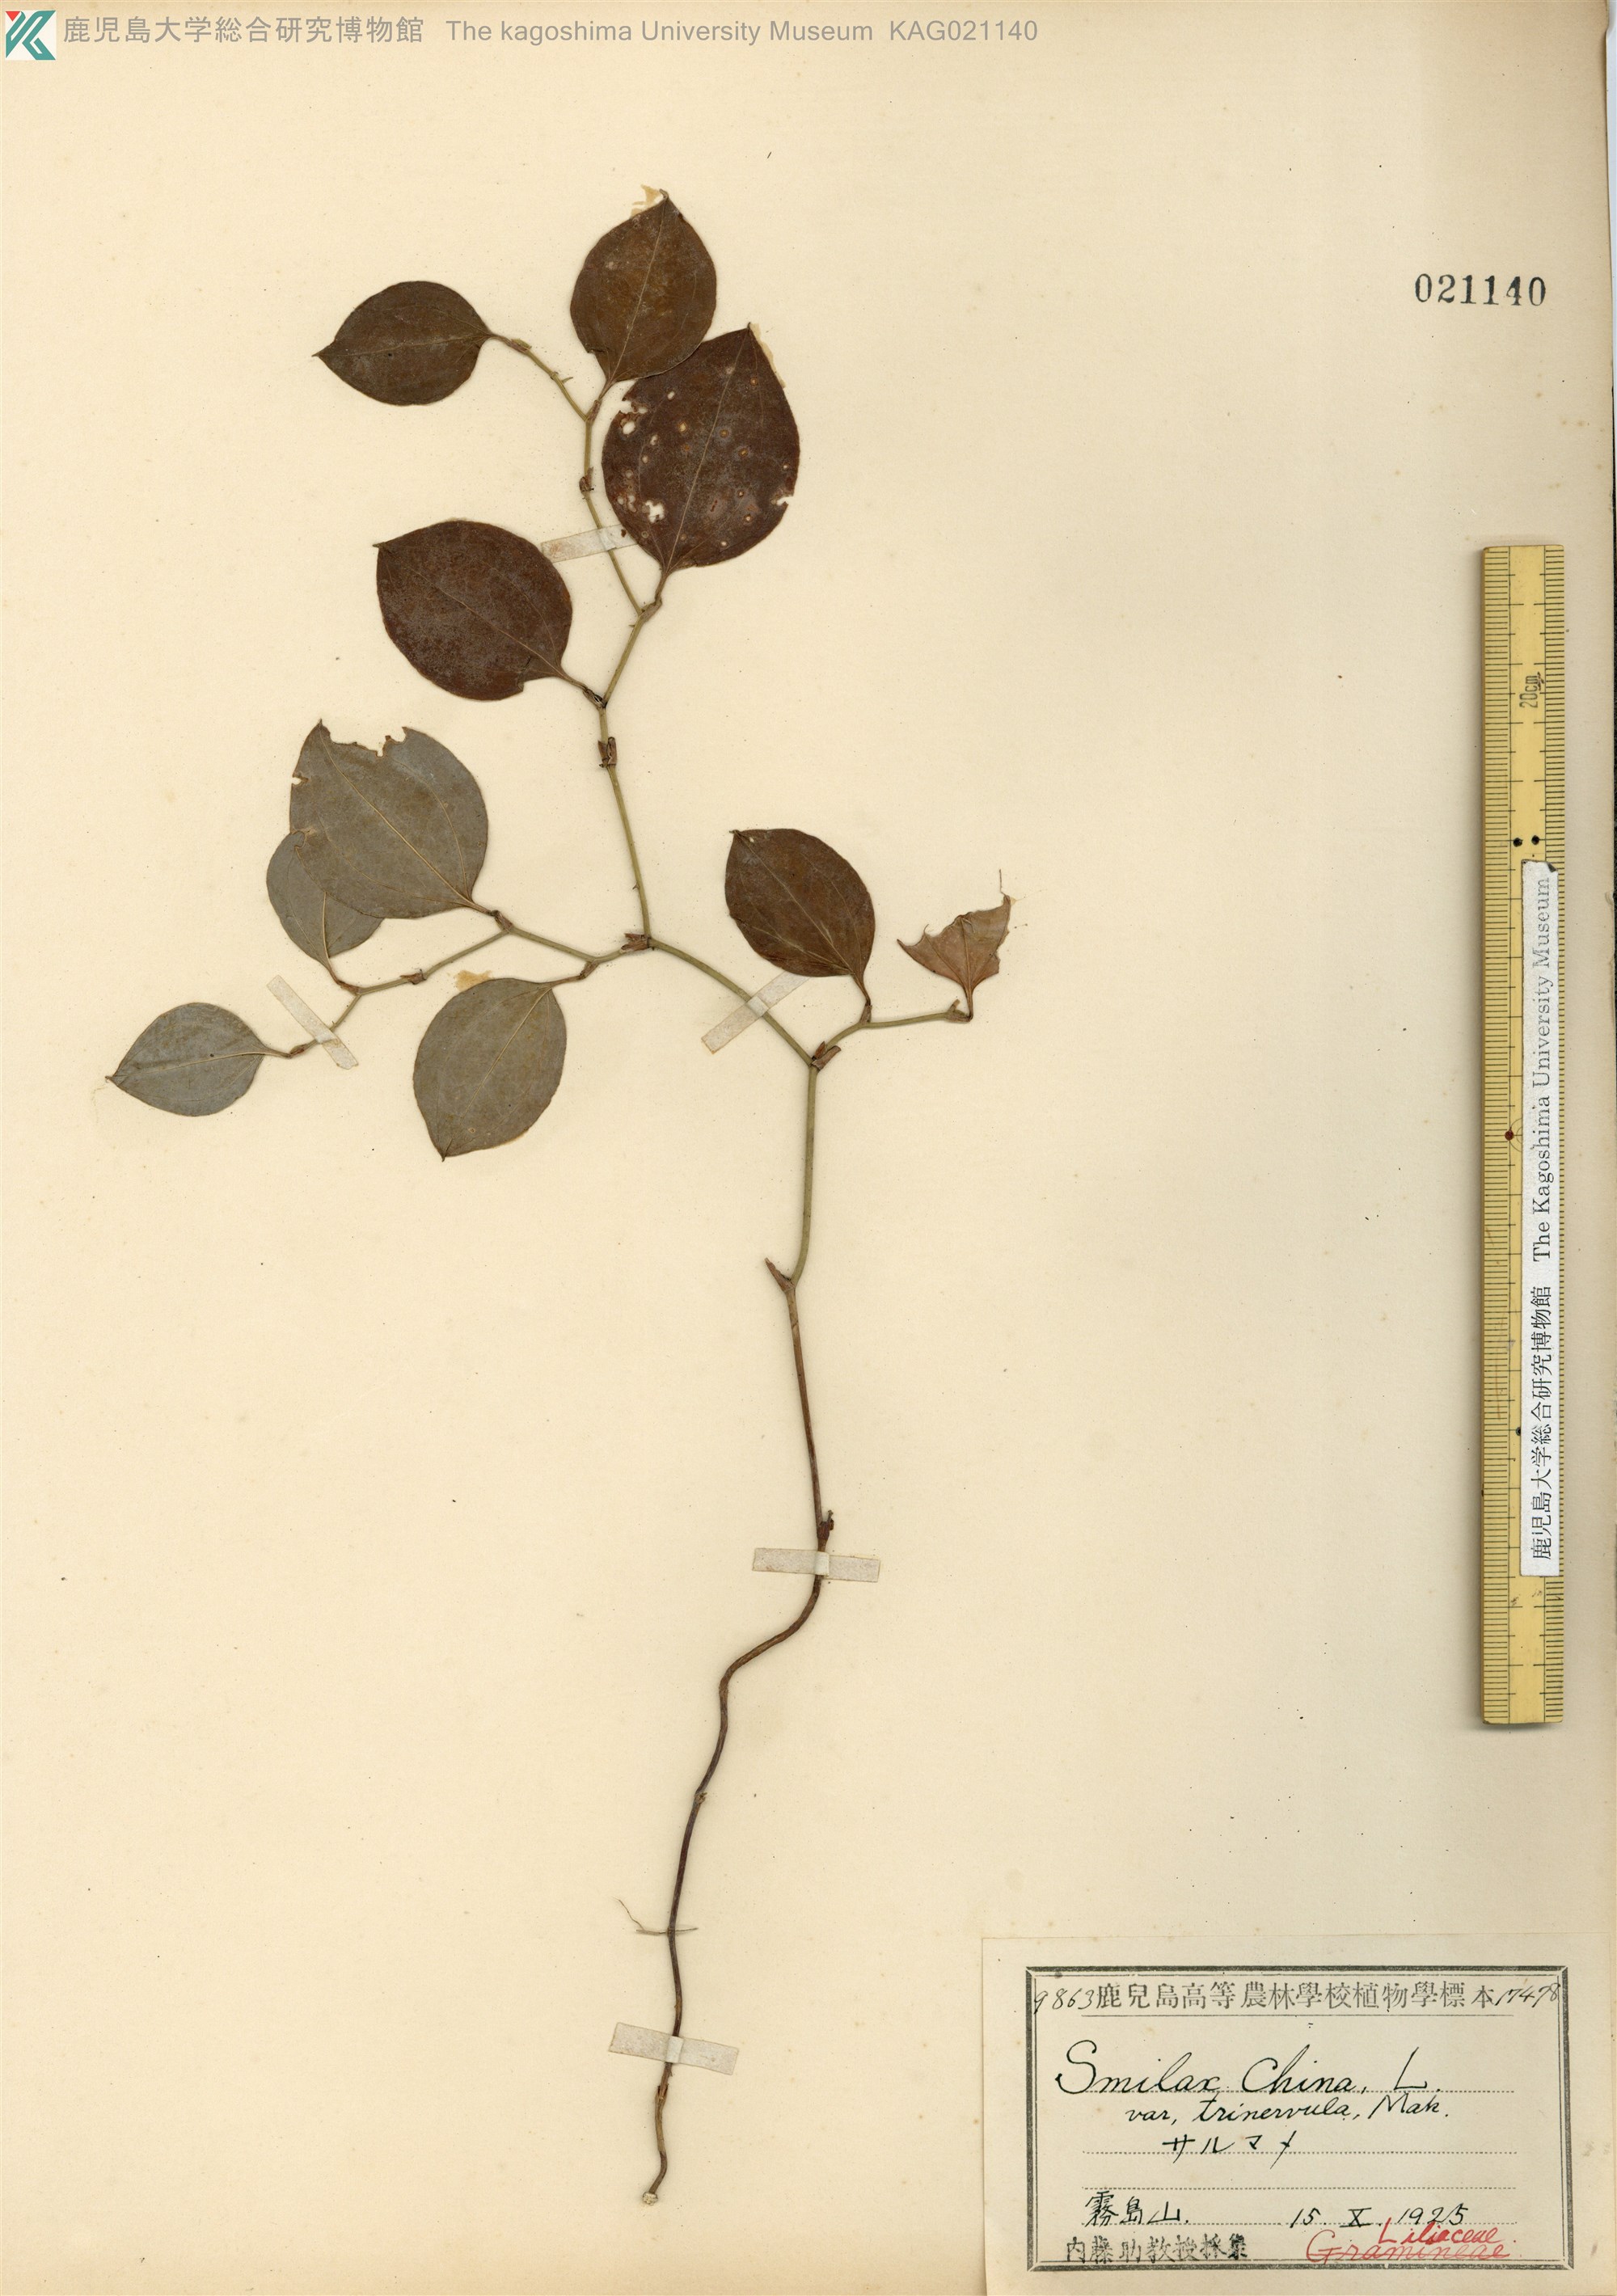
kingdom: Plantae
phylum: Tracheophyta
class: Liliopsida
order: Liliales
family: Smilacaceae
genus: Smilax
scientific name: Smilax china
